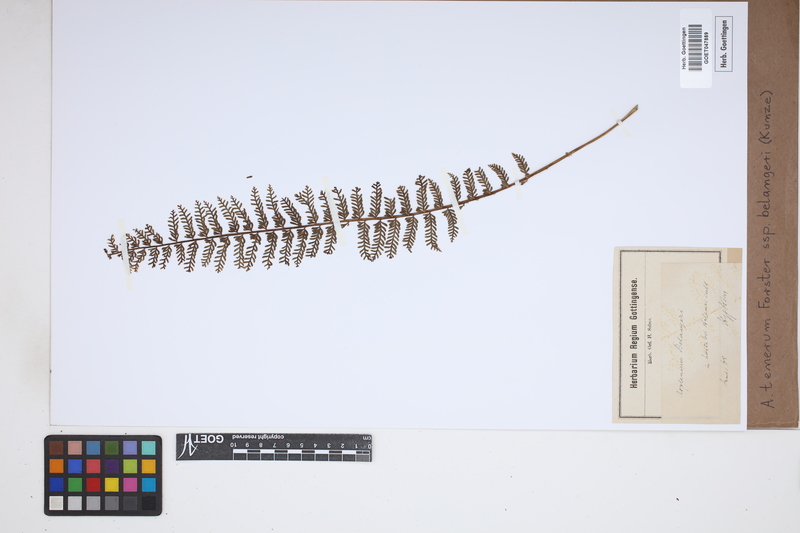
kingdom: Plantae
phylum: Tracheophyta
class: Polypodiopsida
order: Polypodiales
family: Aspleniaceae
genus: Asplenium
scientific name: Asplenium tenerum
